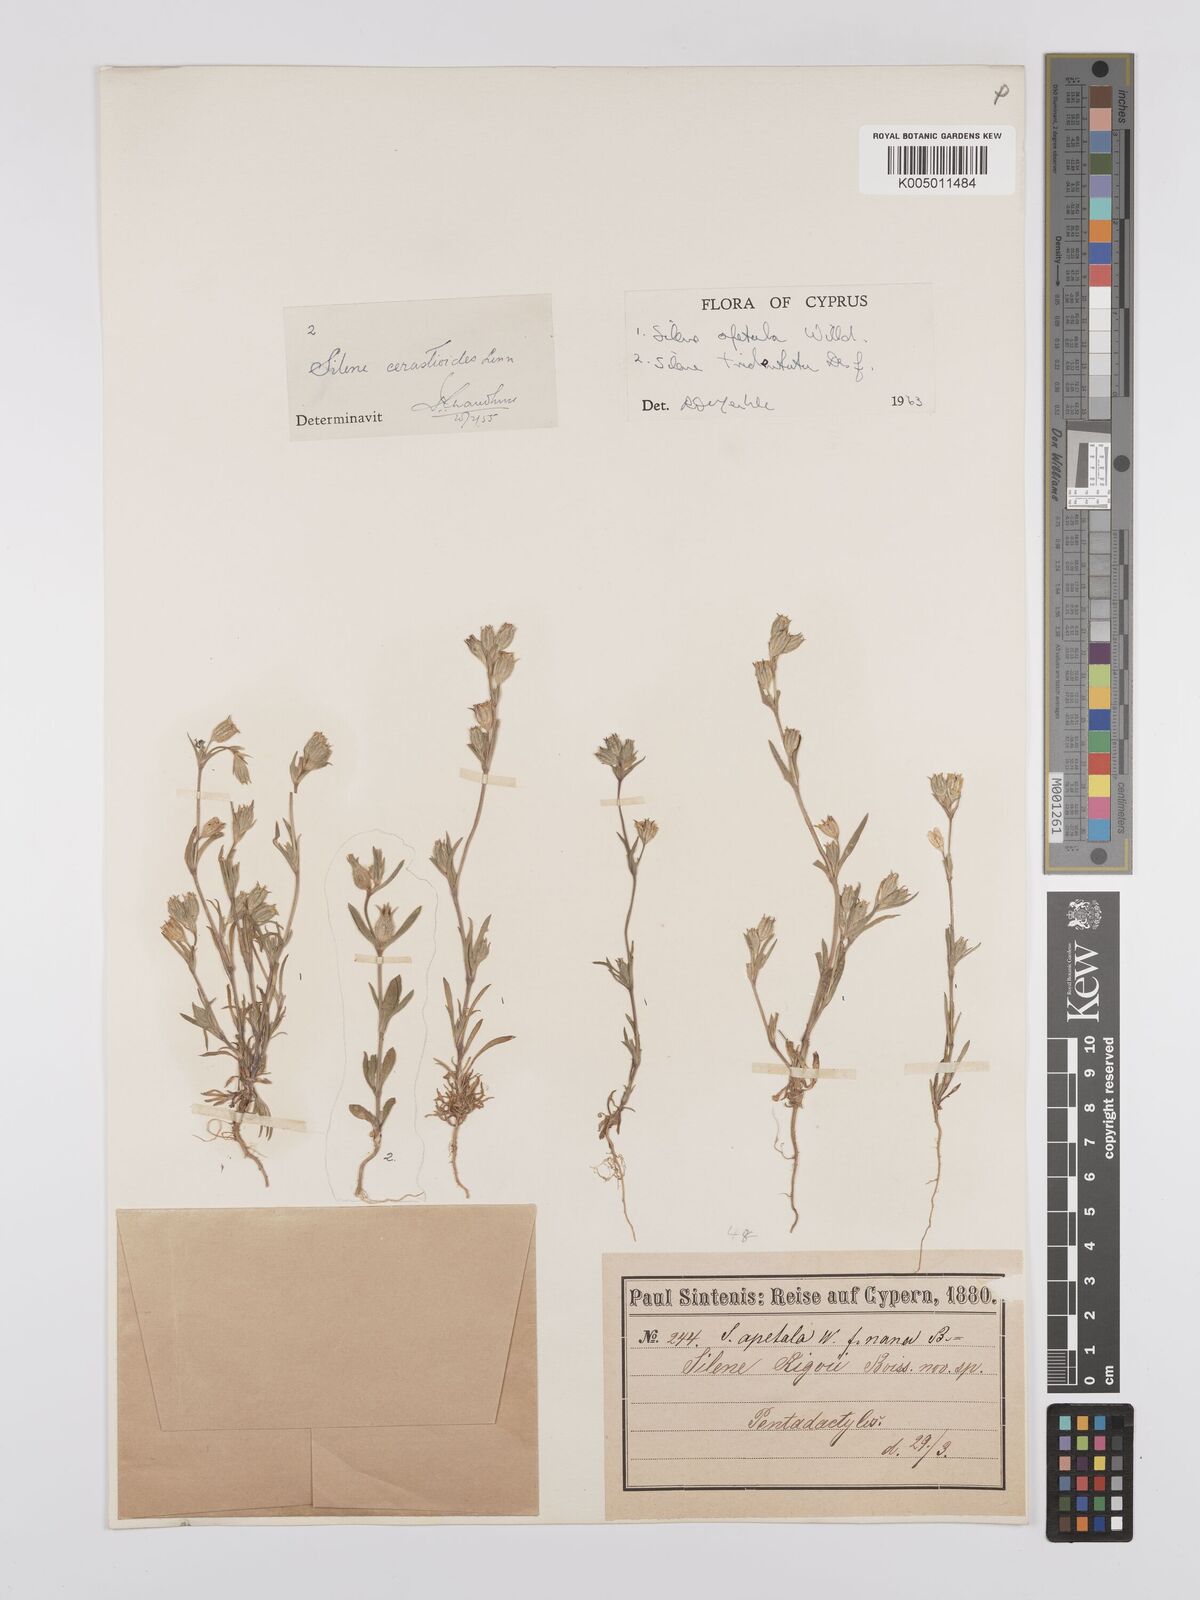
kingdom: Plantae
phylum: Tracheophyta
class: Magnoliopsida
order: Caryophyllales
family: Caryophyllaceae
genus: Silene
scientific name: Silene apetala
